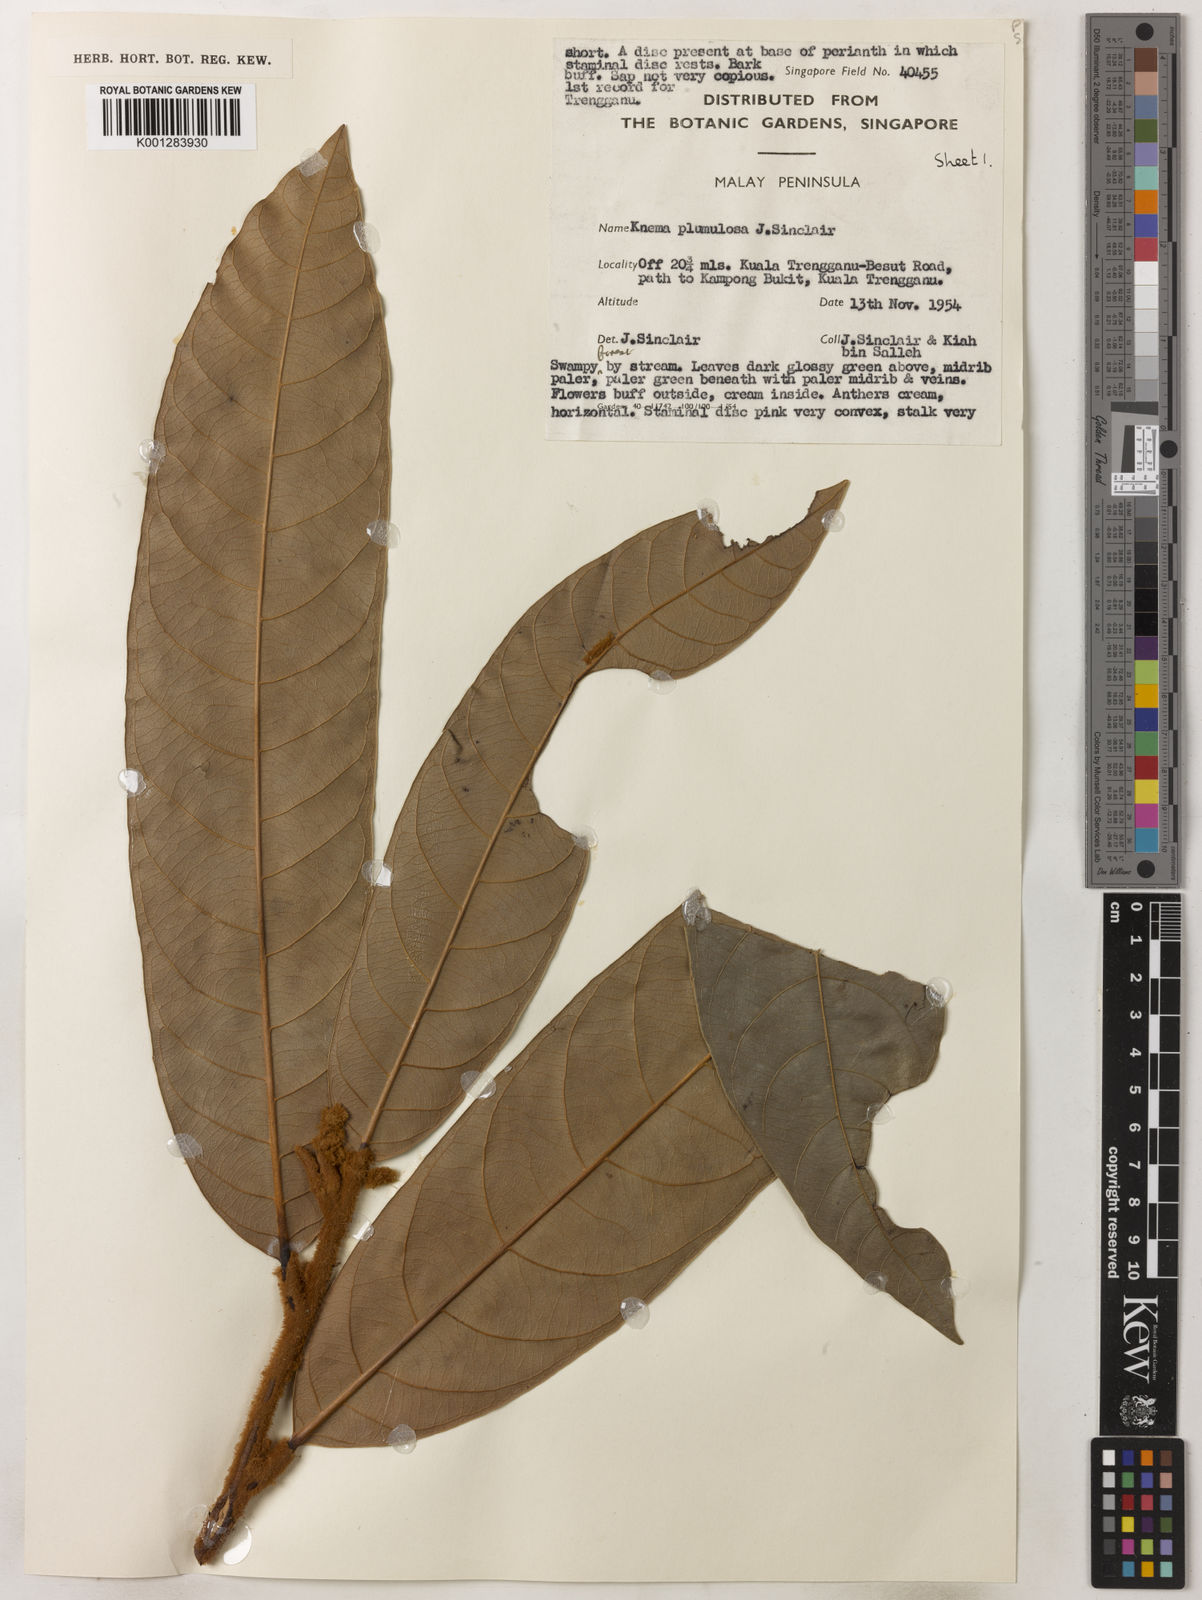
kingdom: Plantae
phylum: Tracheophyta
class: Magnoliopsida
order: Magnoliales
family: Myristicaceae
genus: Knema
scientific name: Knema plumulosa
